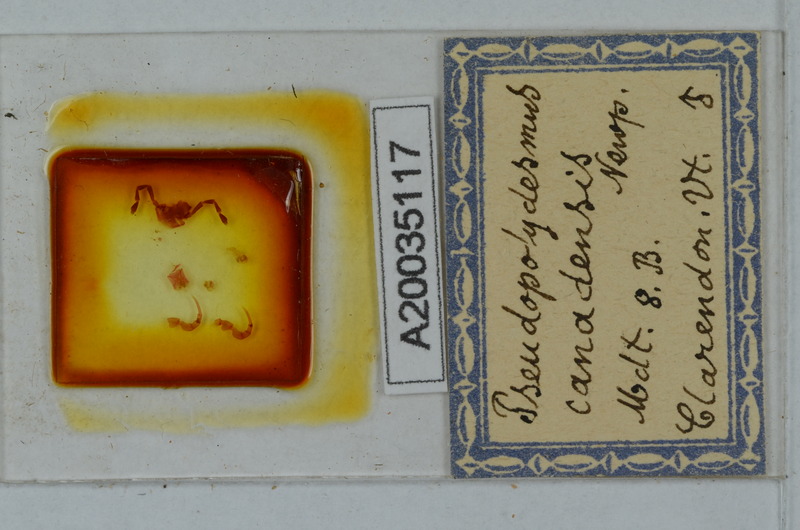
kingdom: Animalia
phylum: Arthropoda
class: Diplopoda
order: Polydesmida
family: Polydesmidae
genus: Pseudopolydesmus
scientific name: Pseudopolydesmus canadensis
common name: Canadian flat-back millipede
